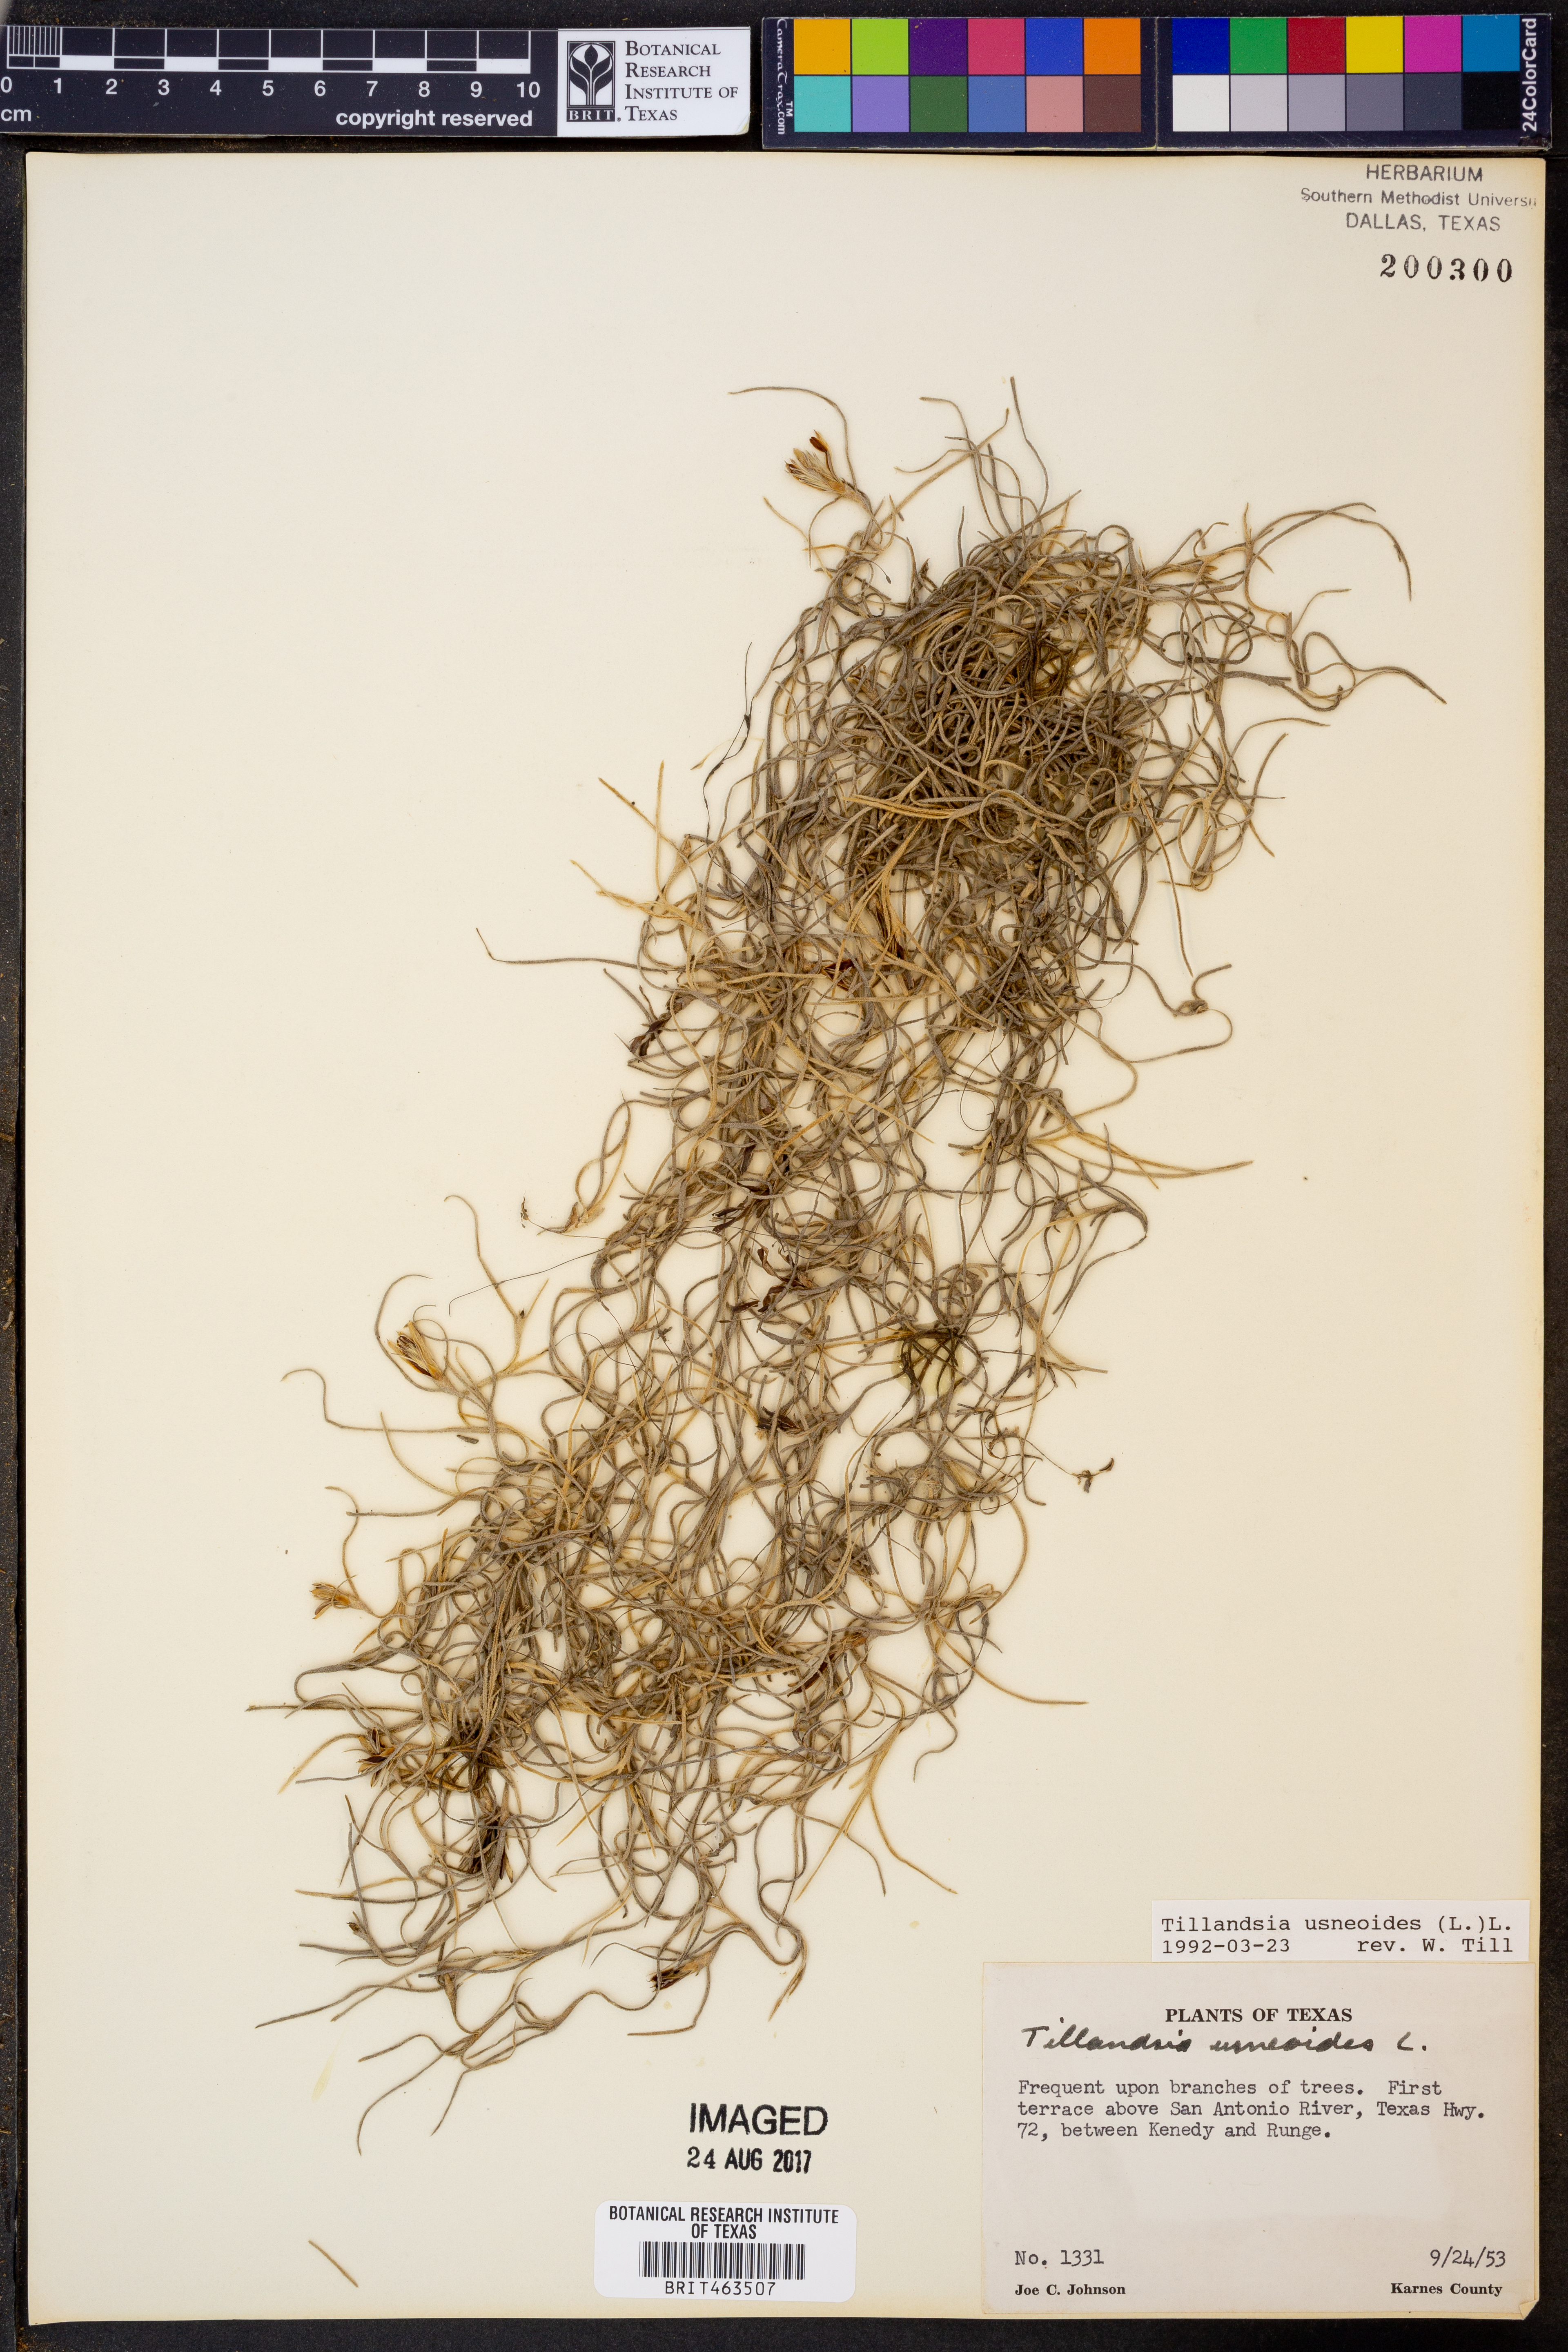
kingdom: Plantae
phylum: Tracheophyta
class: Liliopsida
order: Poales
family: Bromeliaceae
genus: Tillandsia
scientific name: Tillandsia usneoides
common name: Spanish moss
